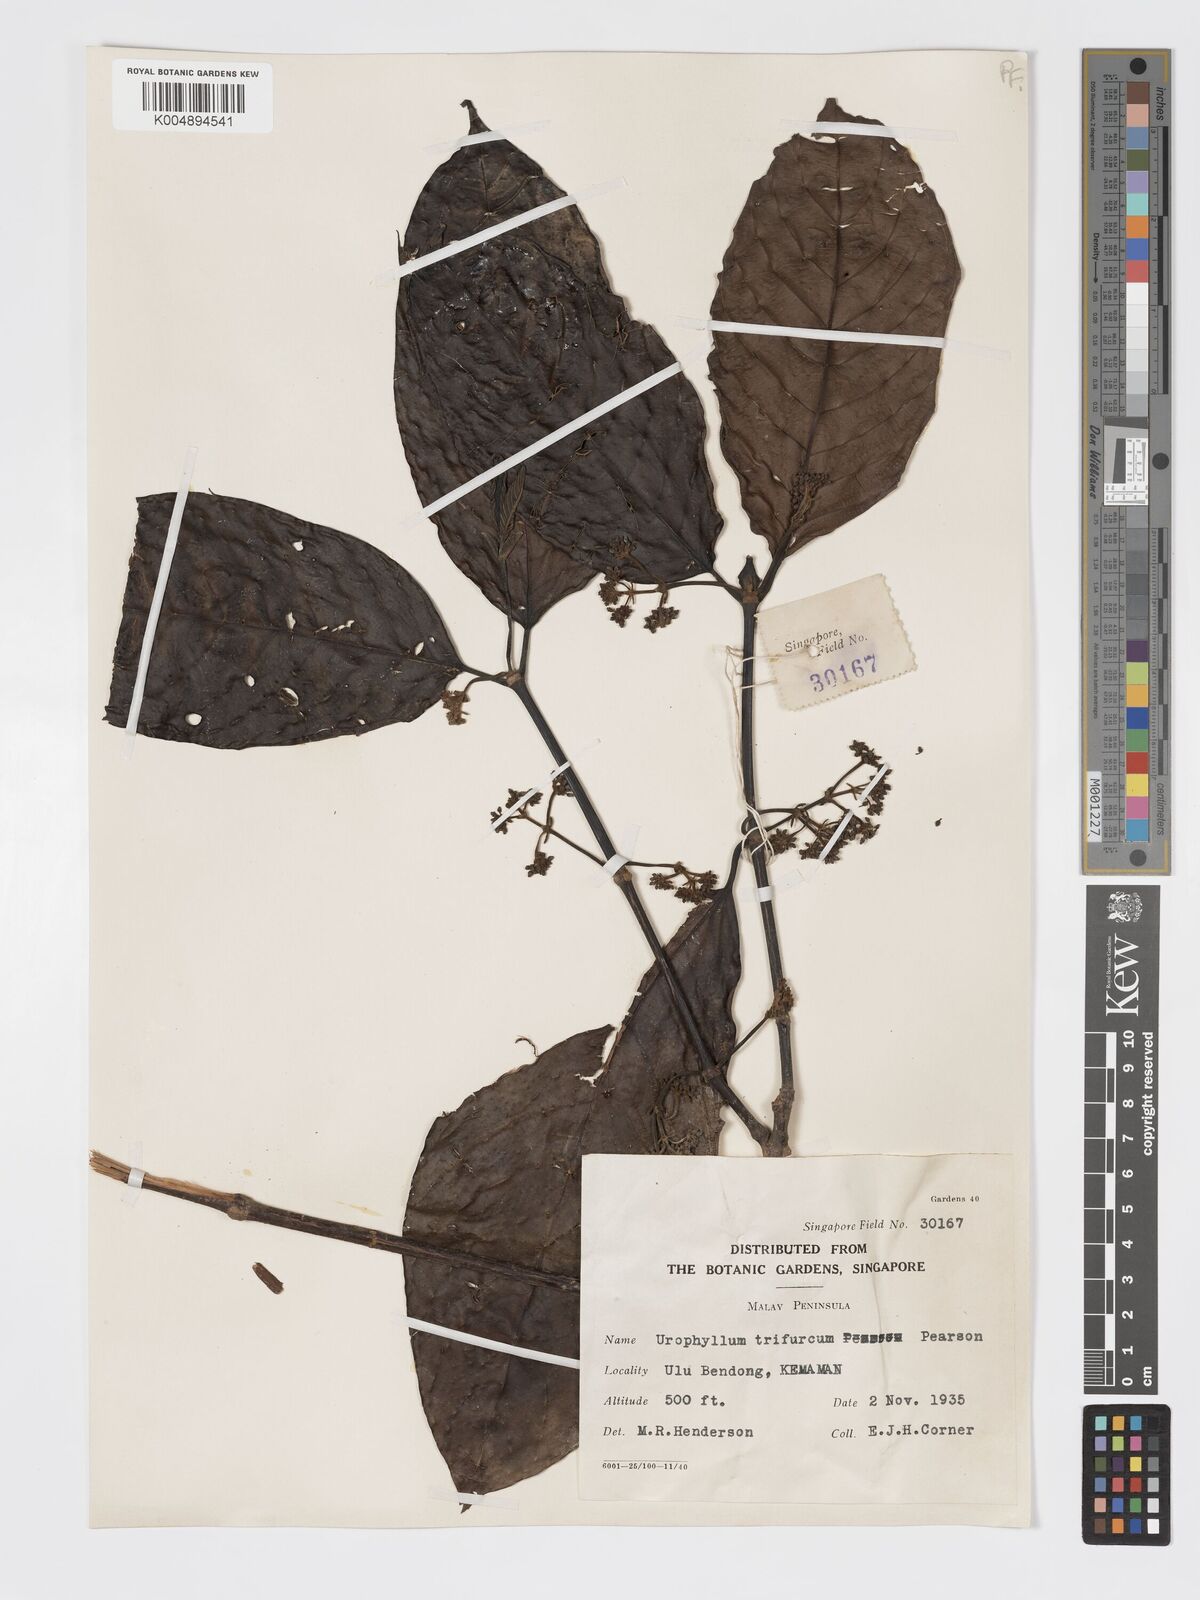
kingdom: Plantae
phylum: Tracheophyta
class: Magnoliopsida
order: Gentianales
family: Rubiaceae
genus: Urophyllum
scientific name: Urophyllum malayense
